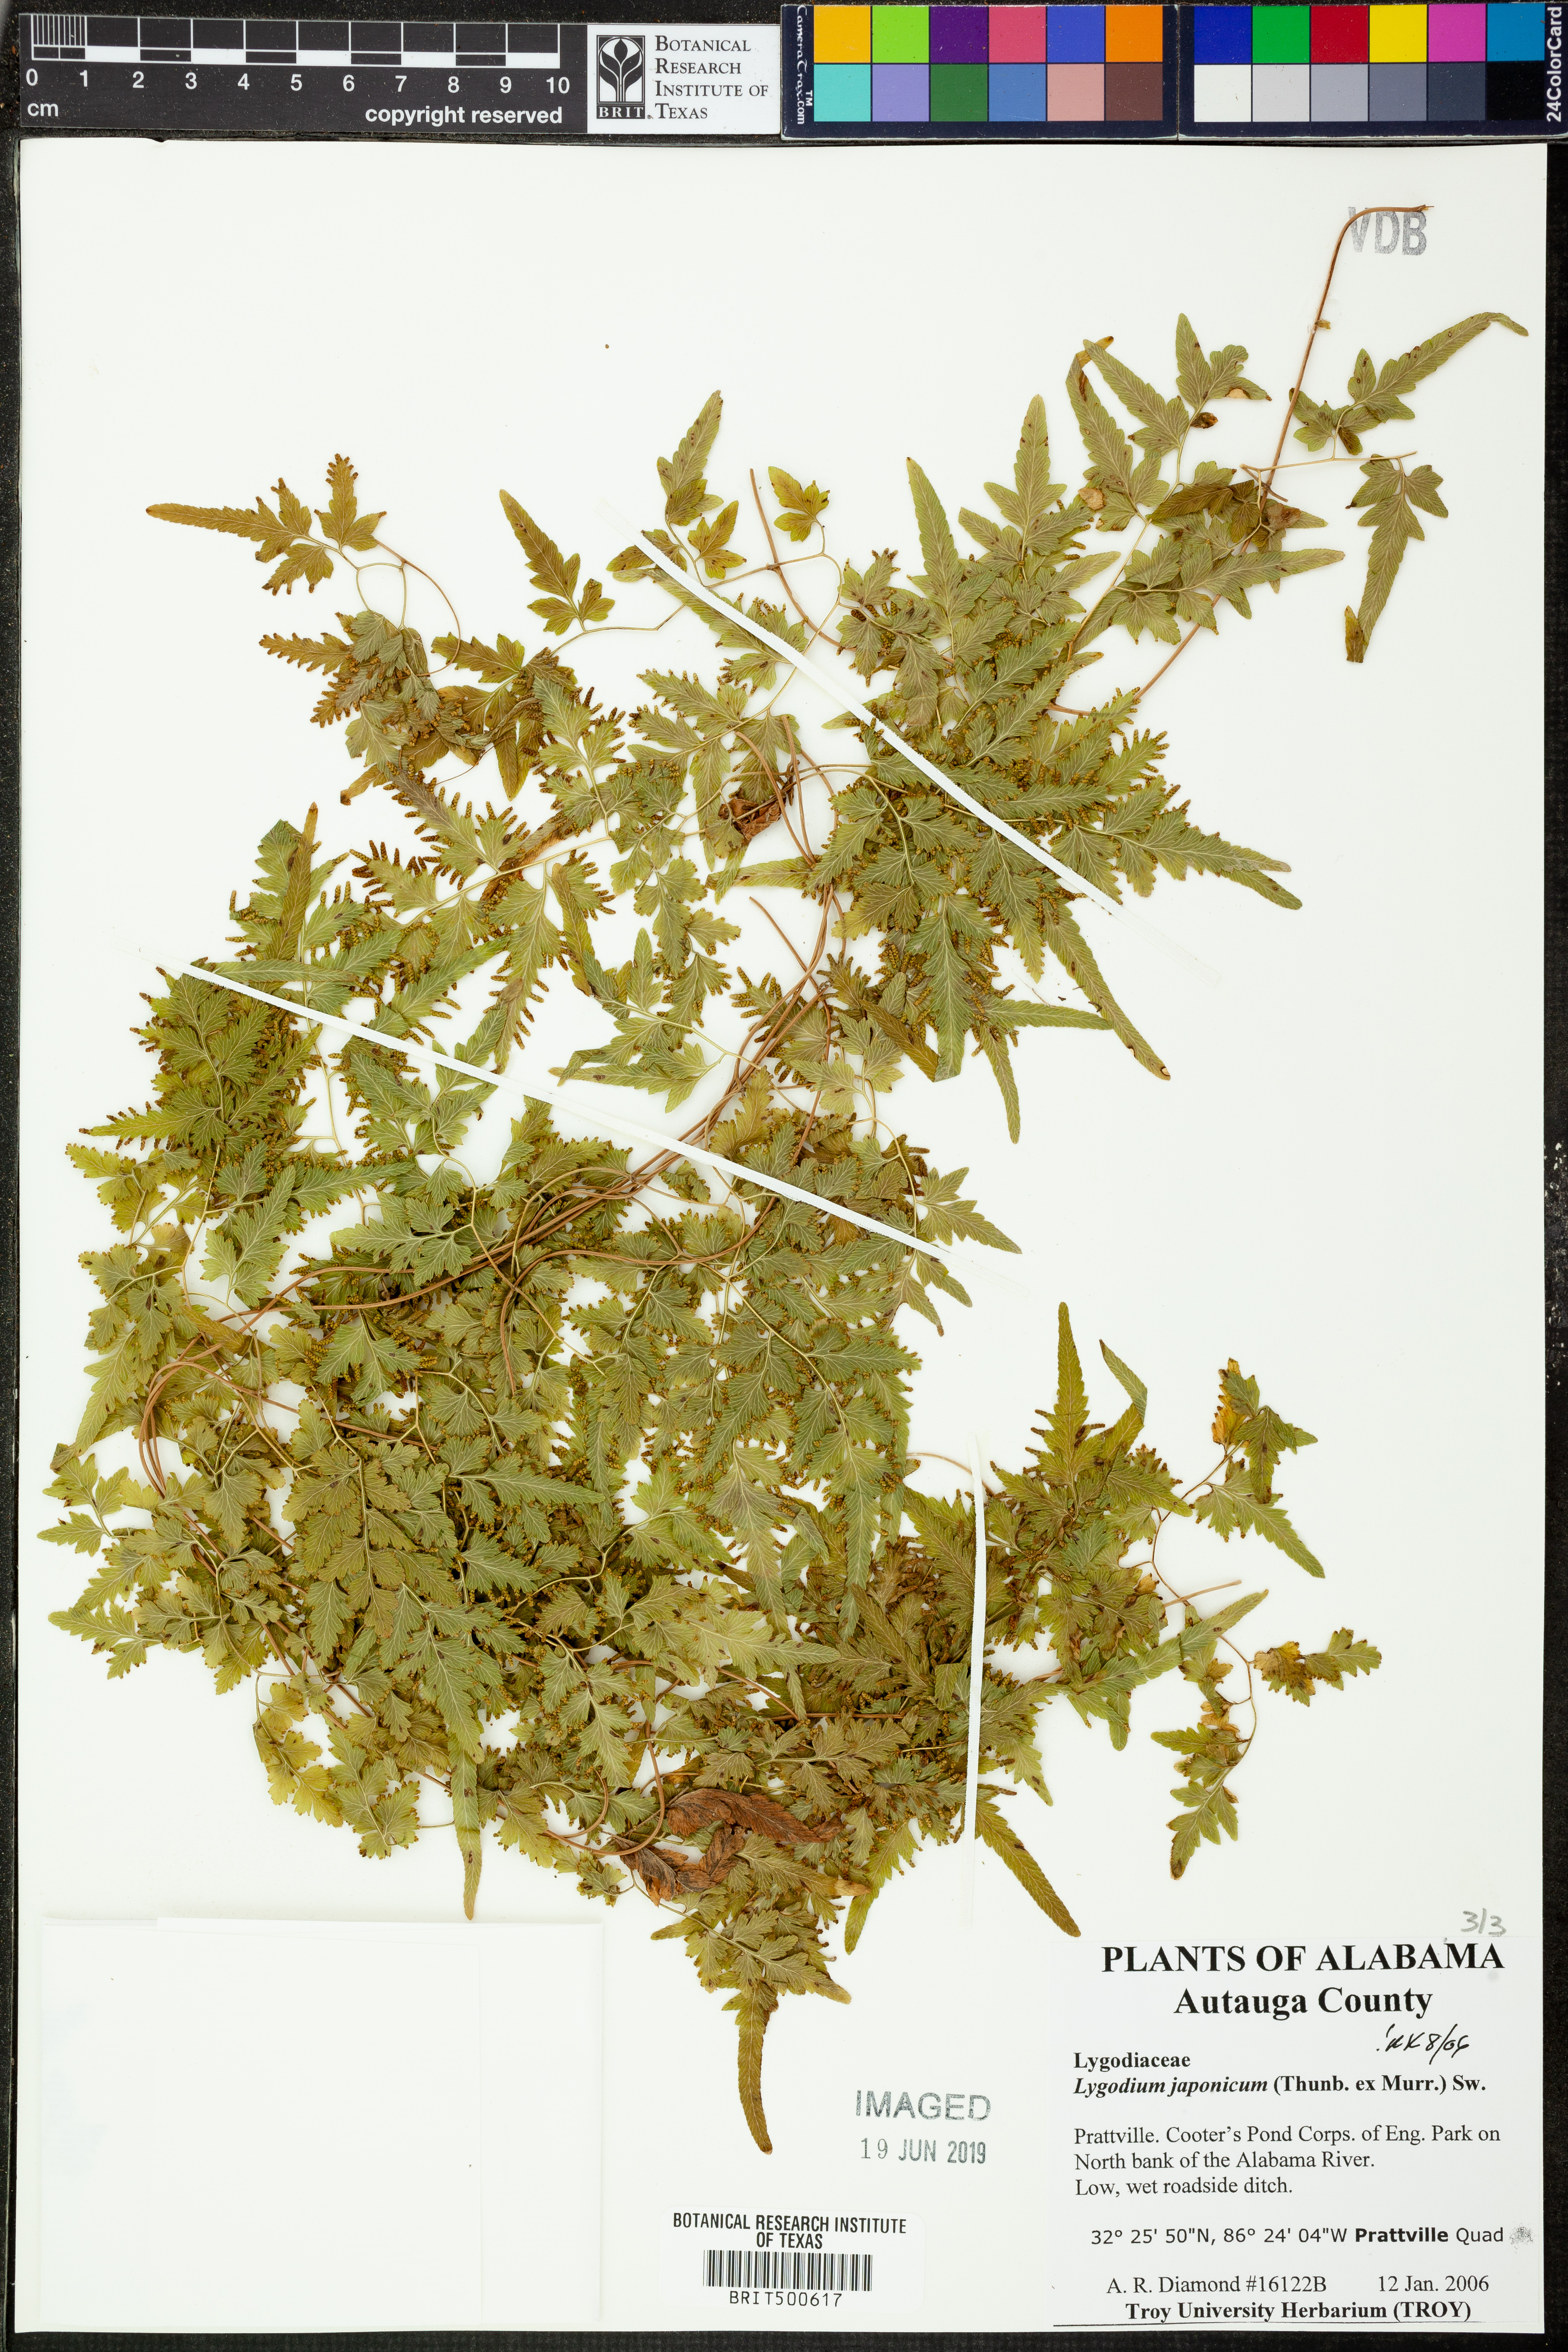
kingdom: Plantae
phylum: Tracheophyta
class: Polypodiopsida
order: Schizaeales
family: Lygodiaceae
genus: Lygodium
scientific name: Lygodium japonicum
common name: Japanese climbing fern
